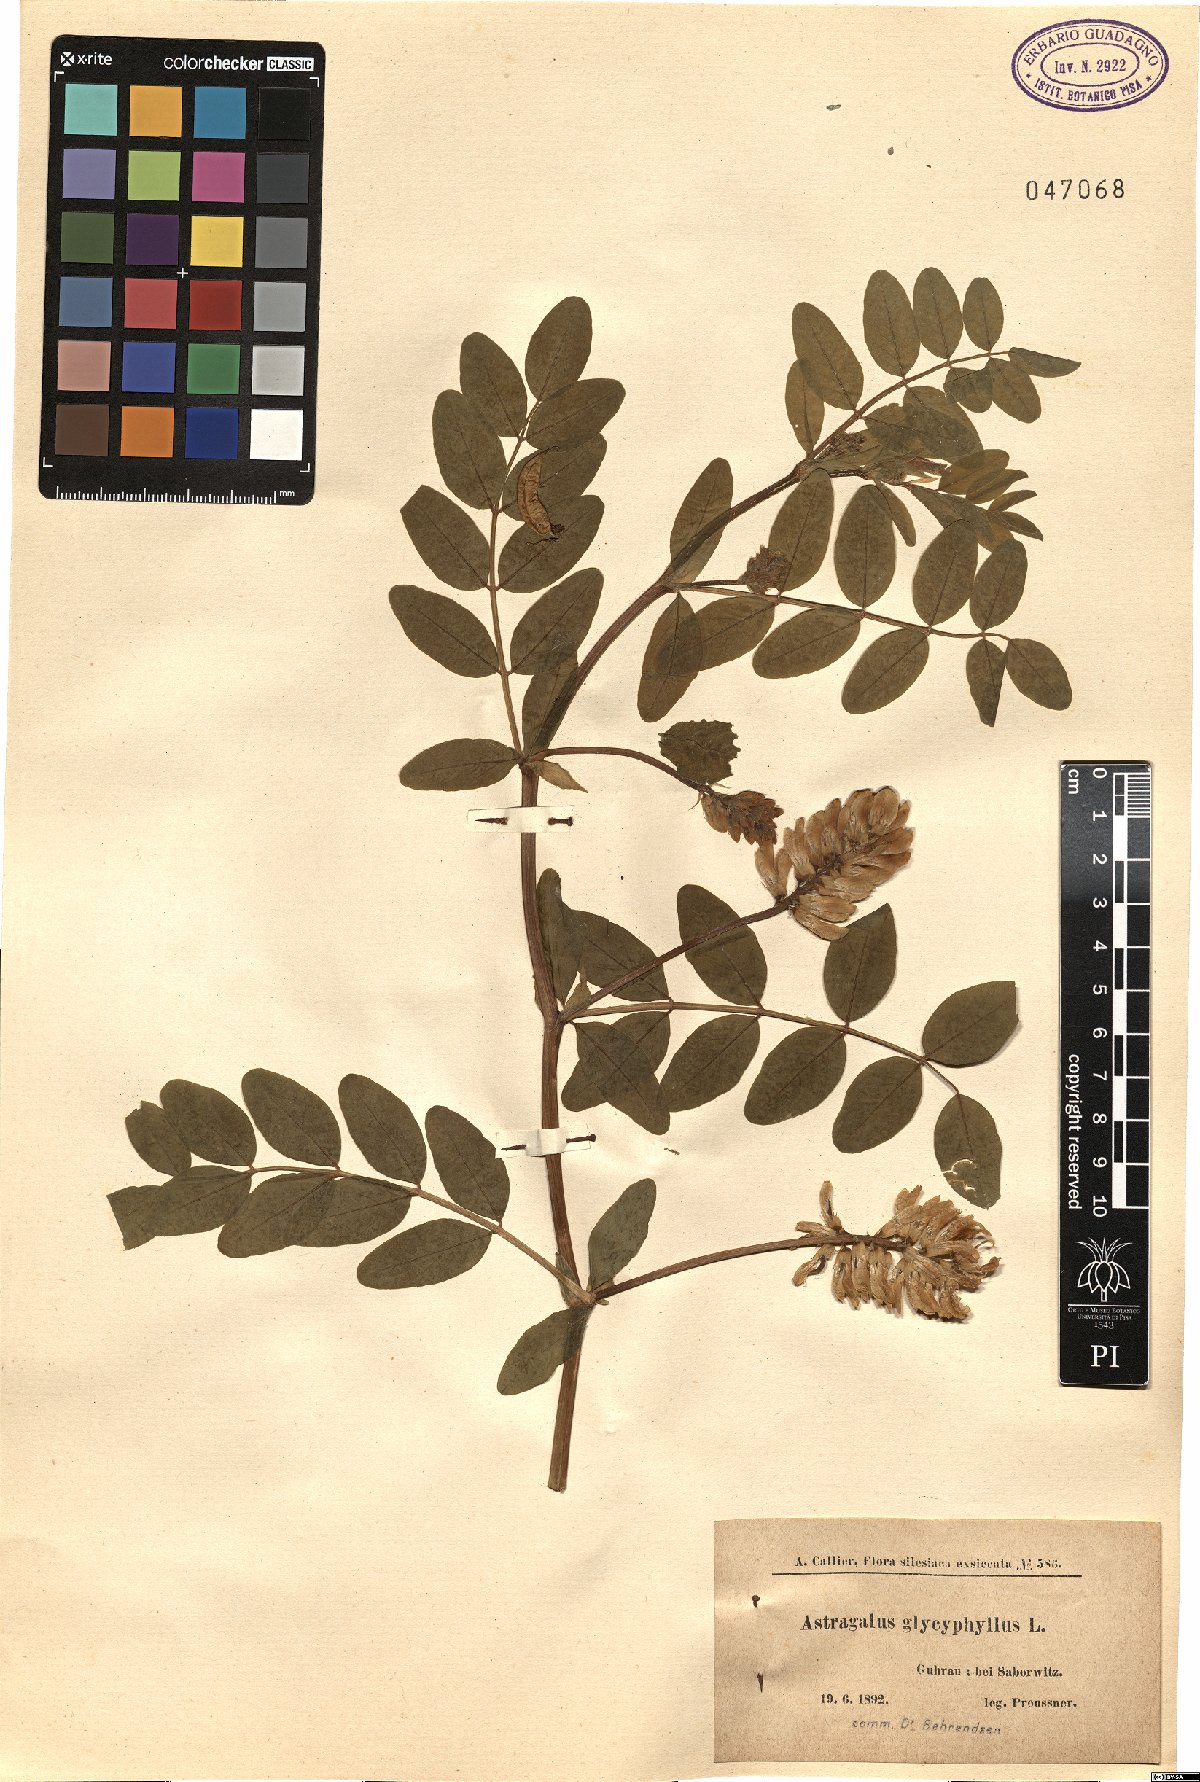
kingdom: Plantae
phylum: Tracheophyta
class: Magnoliopsida
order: Fabales
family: Fabaceae
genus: Astragalus
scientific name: Astragalus glycyphyllos
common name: Wild liquorice
